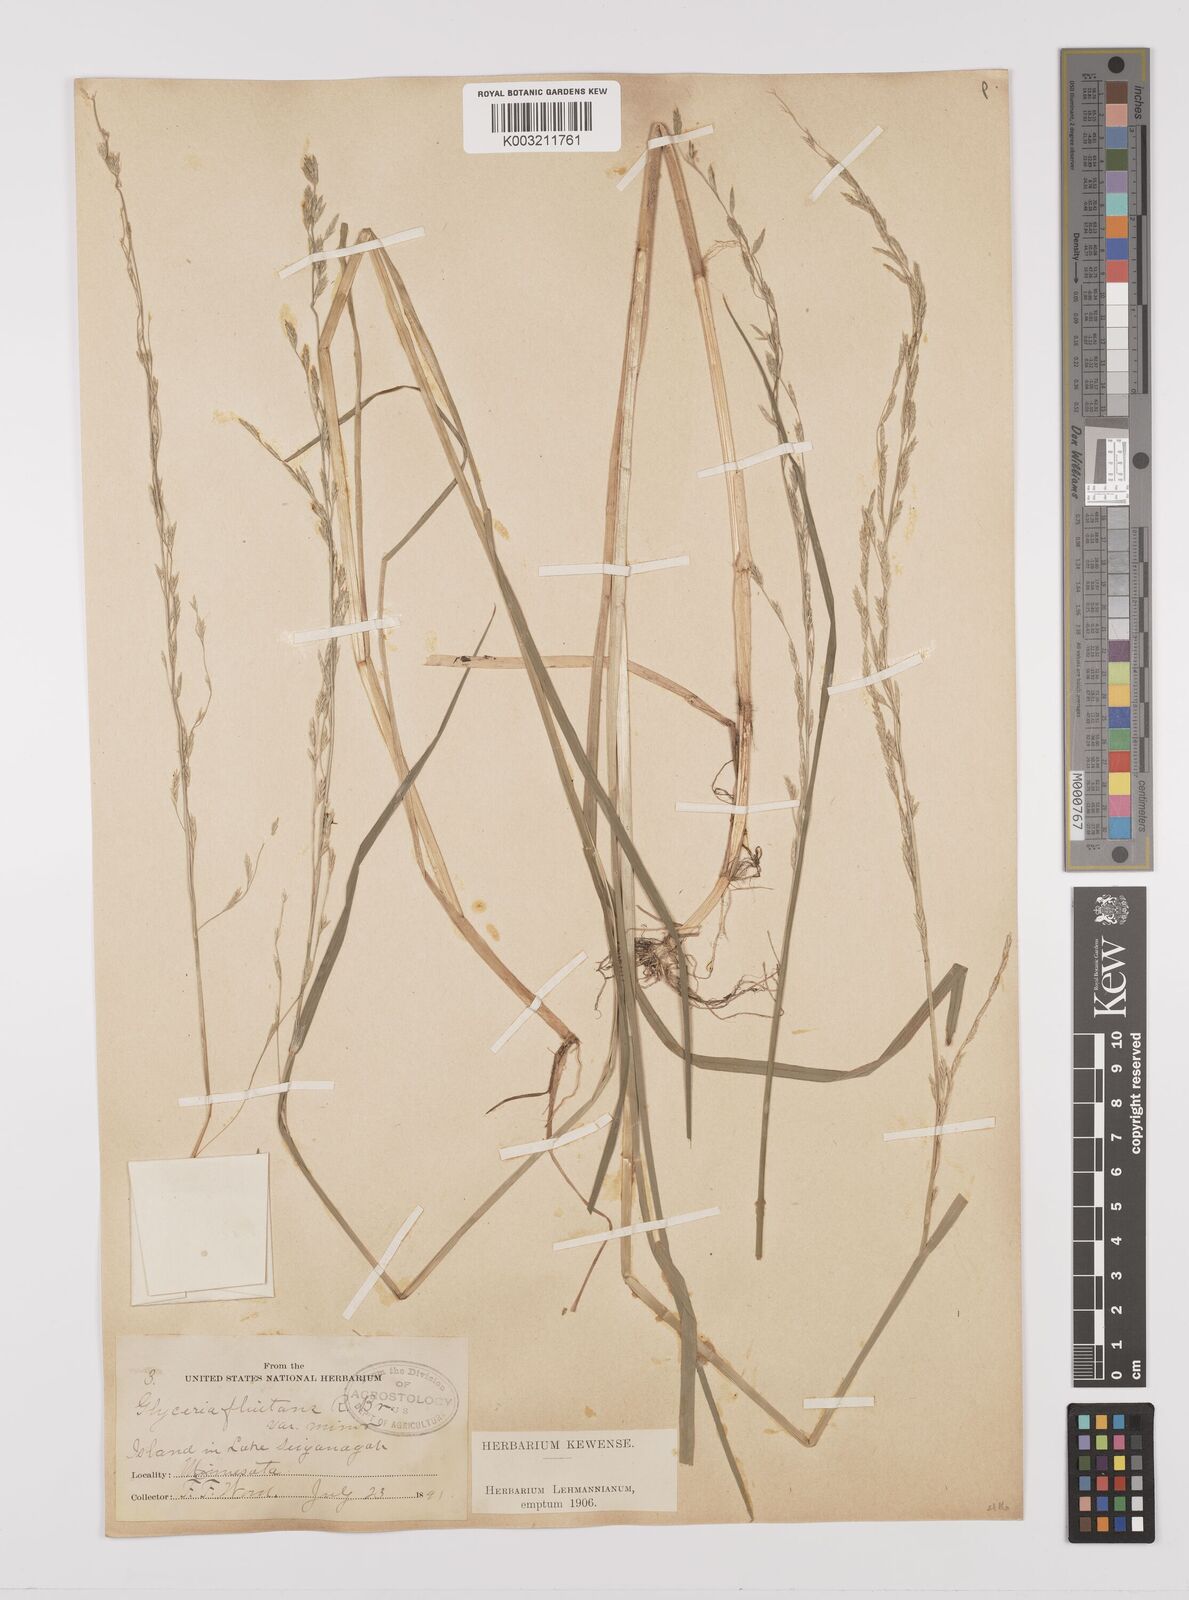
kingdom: Plantae
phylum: Tracheophyta
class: Liliopsida
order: Poales
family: Poaceae
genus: Glyceria
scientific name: Glyceria borealis
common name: Boreal glyceria
